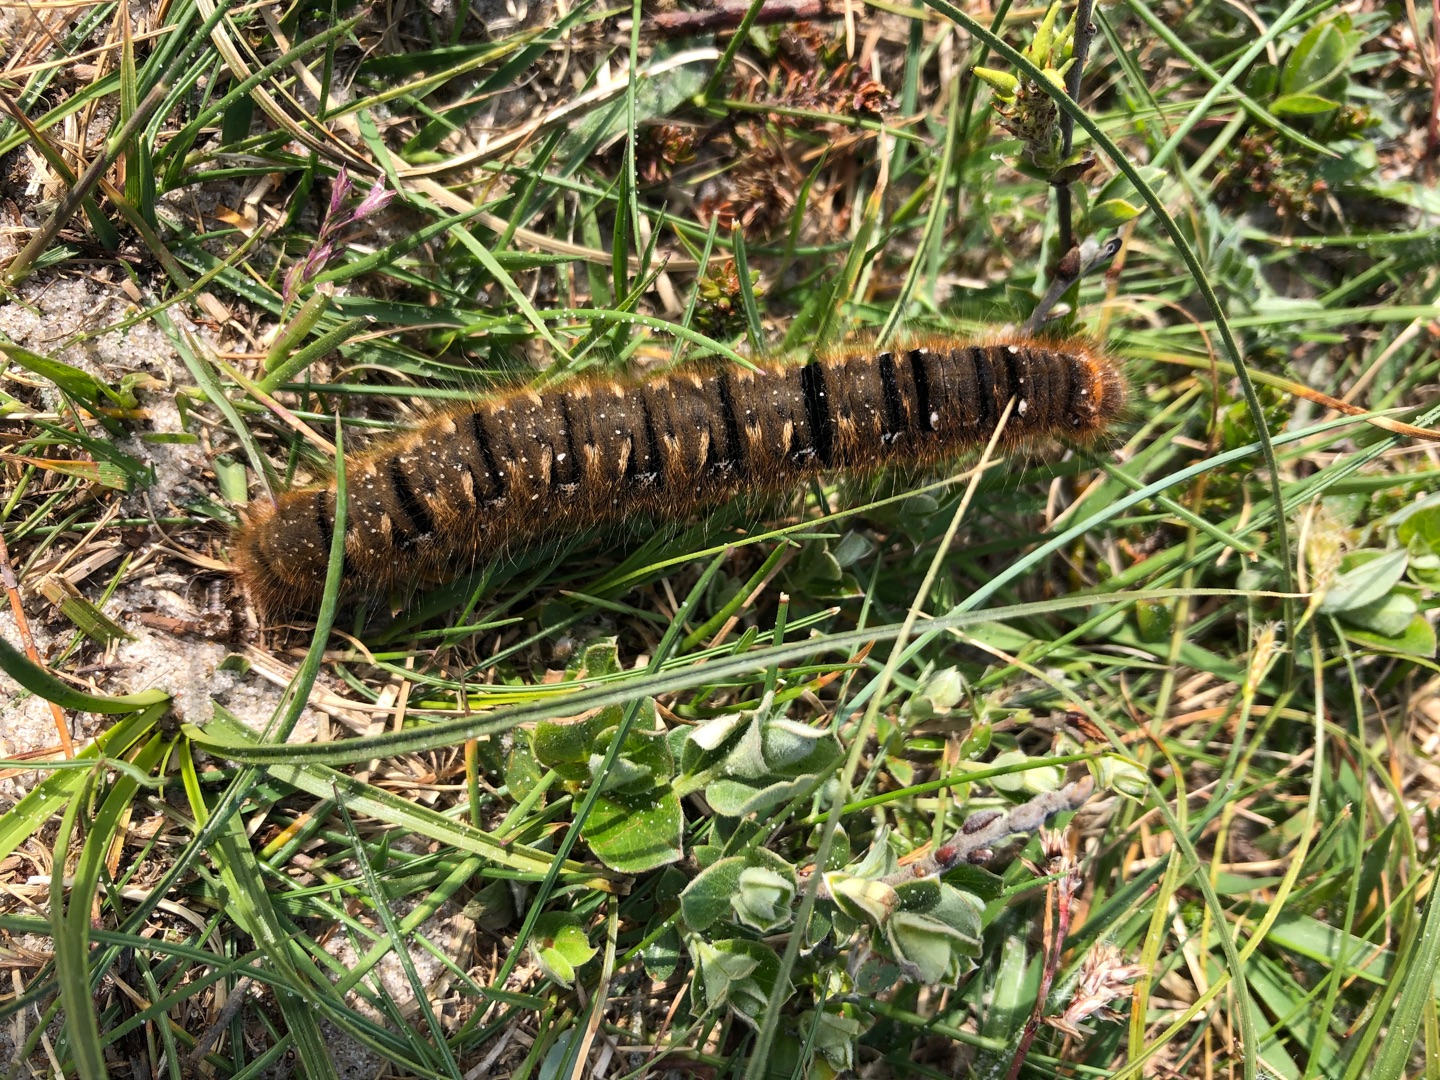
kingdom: Animalia
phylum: Arthropoda
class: Insecta
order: Lepidoptera
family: Lasiocampidae
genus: Euthrix
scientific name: Euthrix potatoria
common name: Græsspinder
